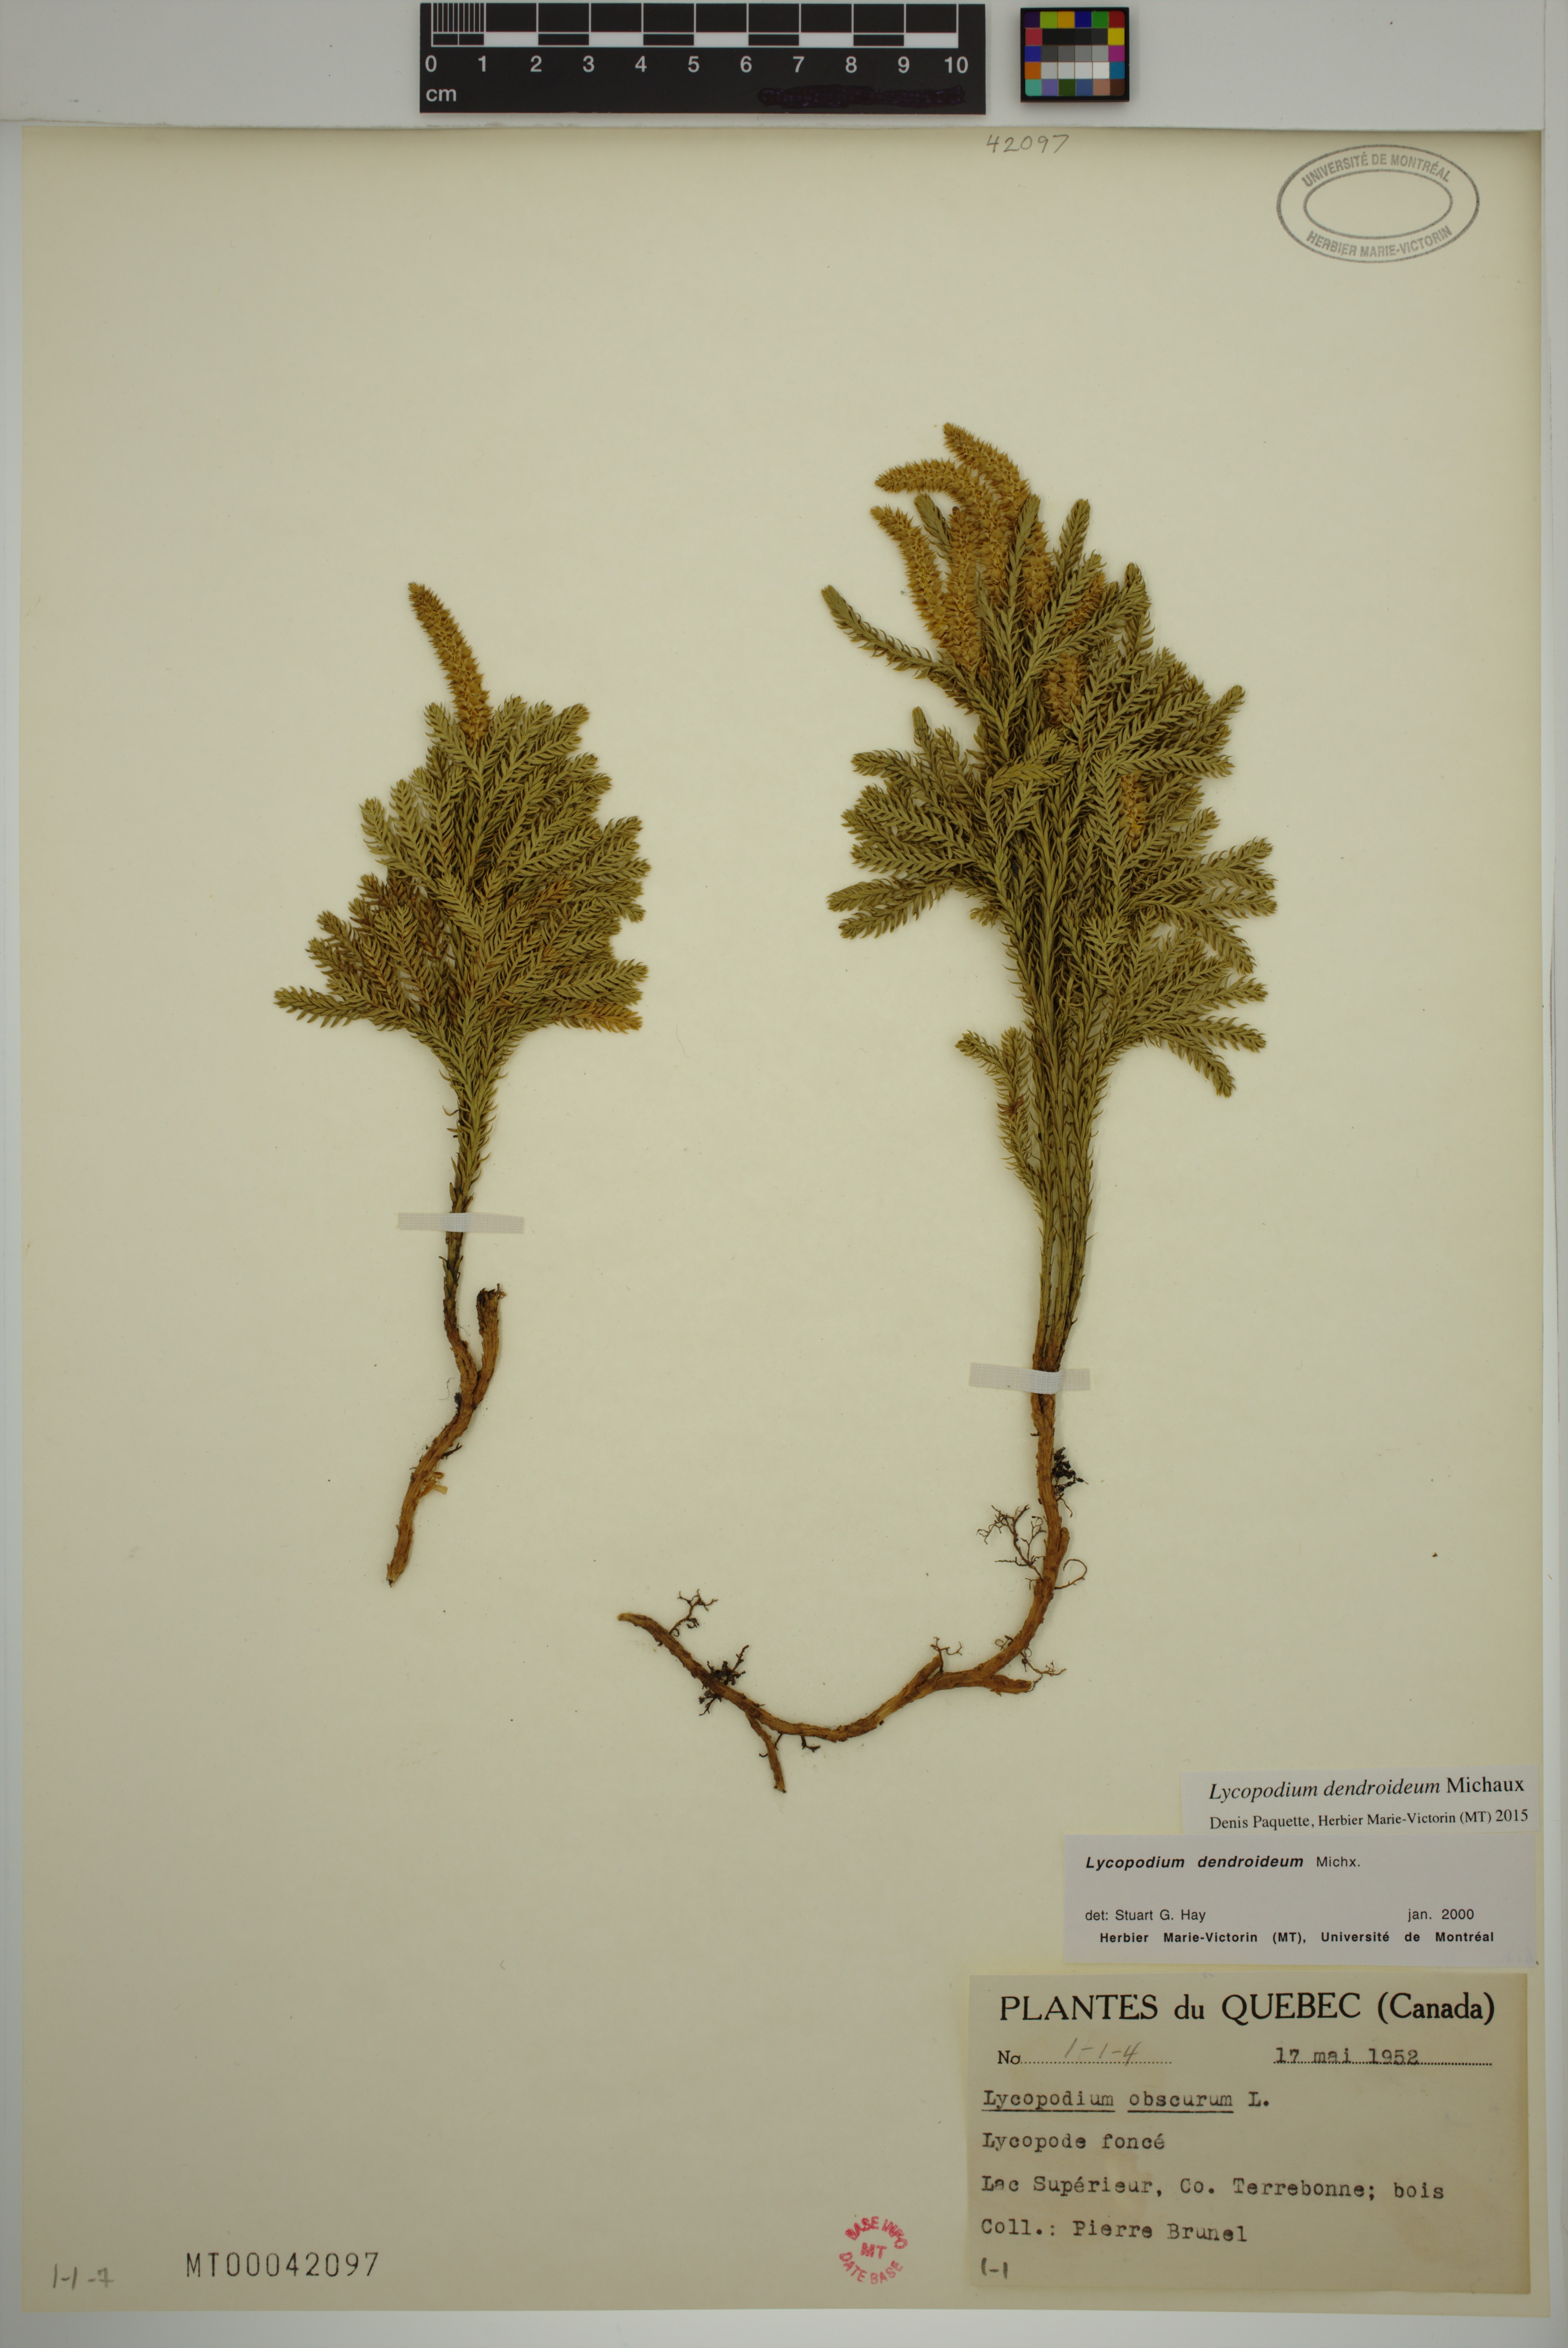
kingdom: Plantae
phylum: Tracheophyta
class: Lycopodiopsida
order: Lycopodiales
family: Lycopodiaceae
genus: Dendrolycopodium
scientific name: Dendrolycopodium dendroideum
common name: Northern tree-clubmoss
